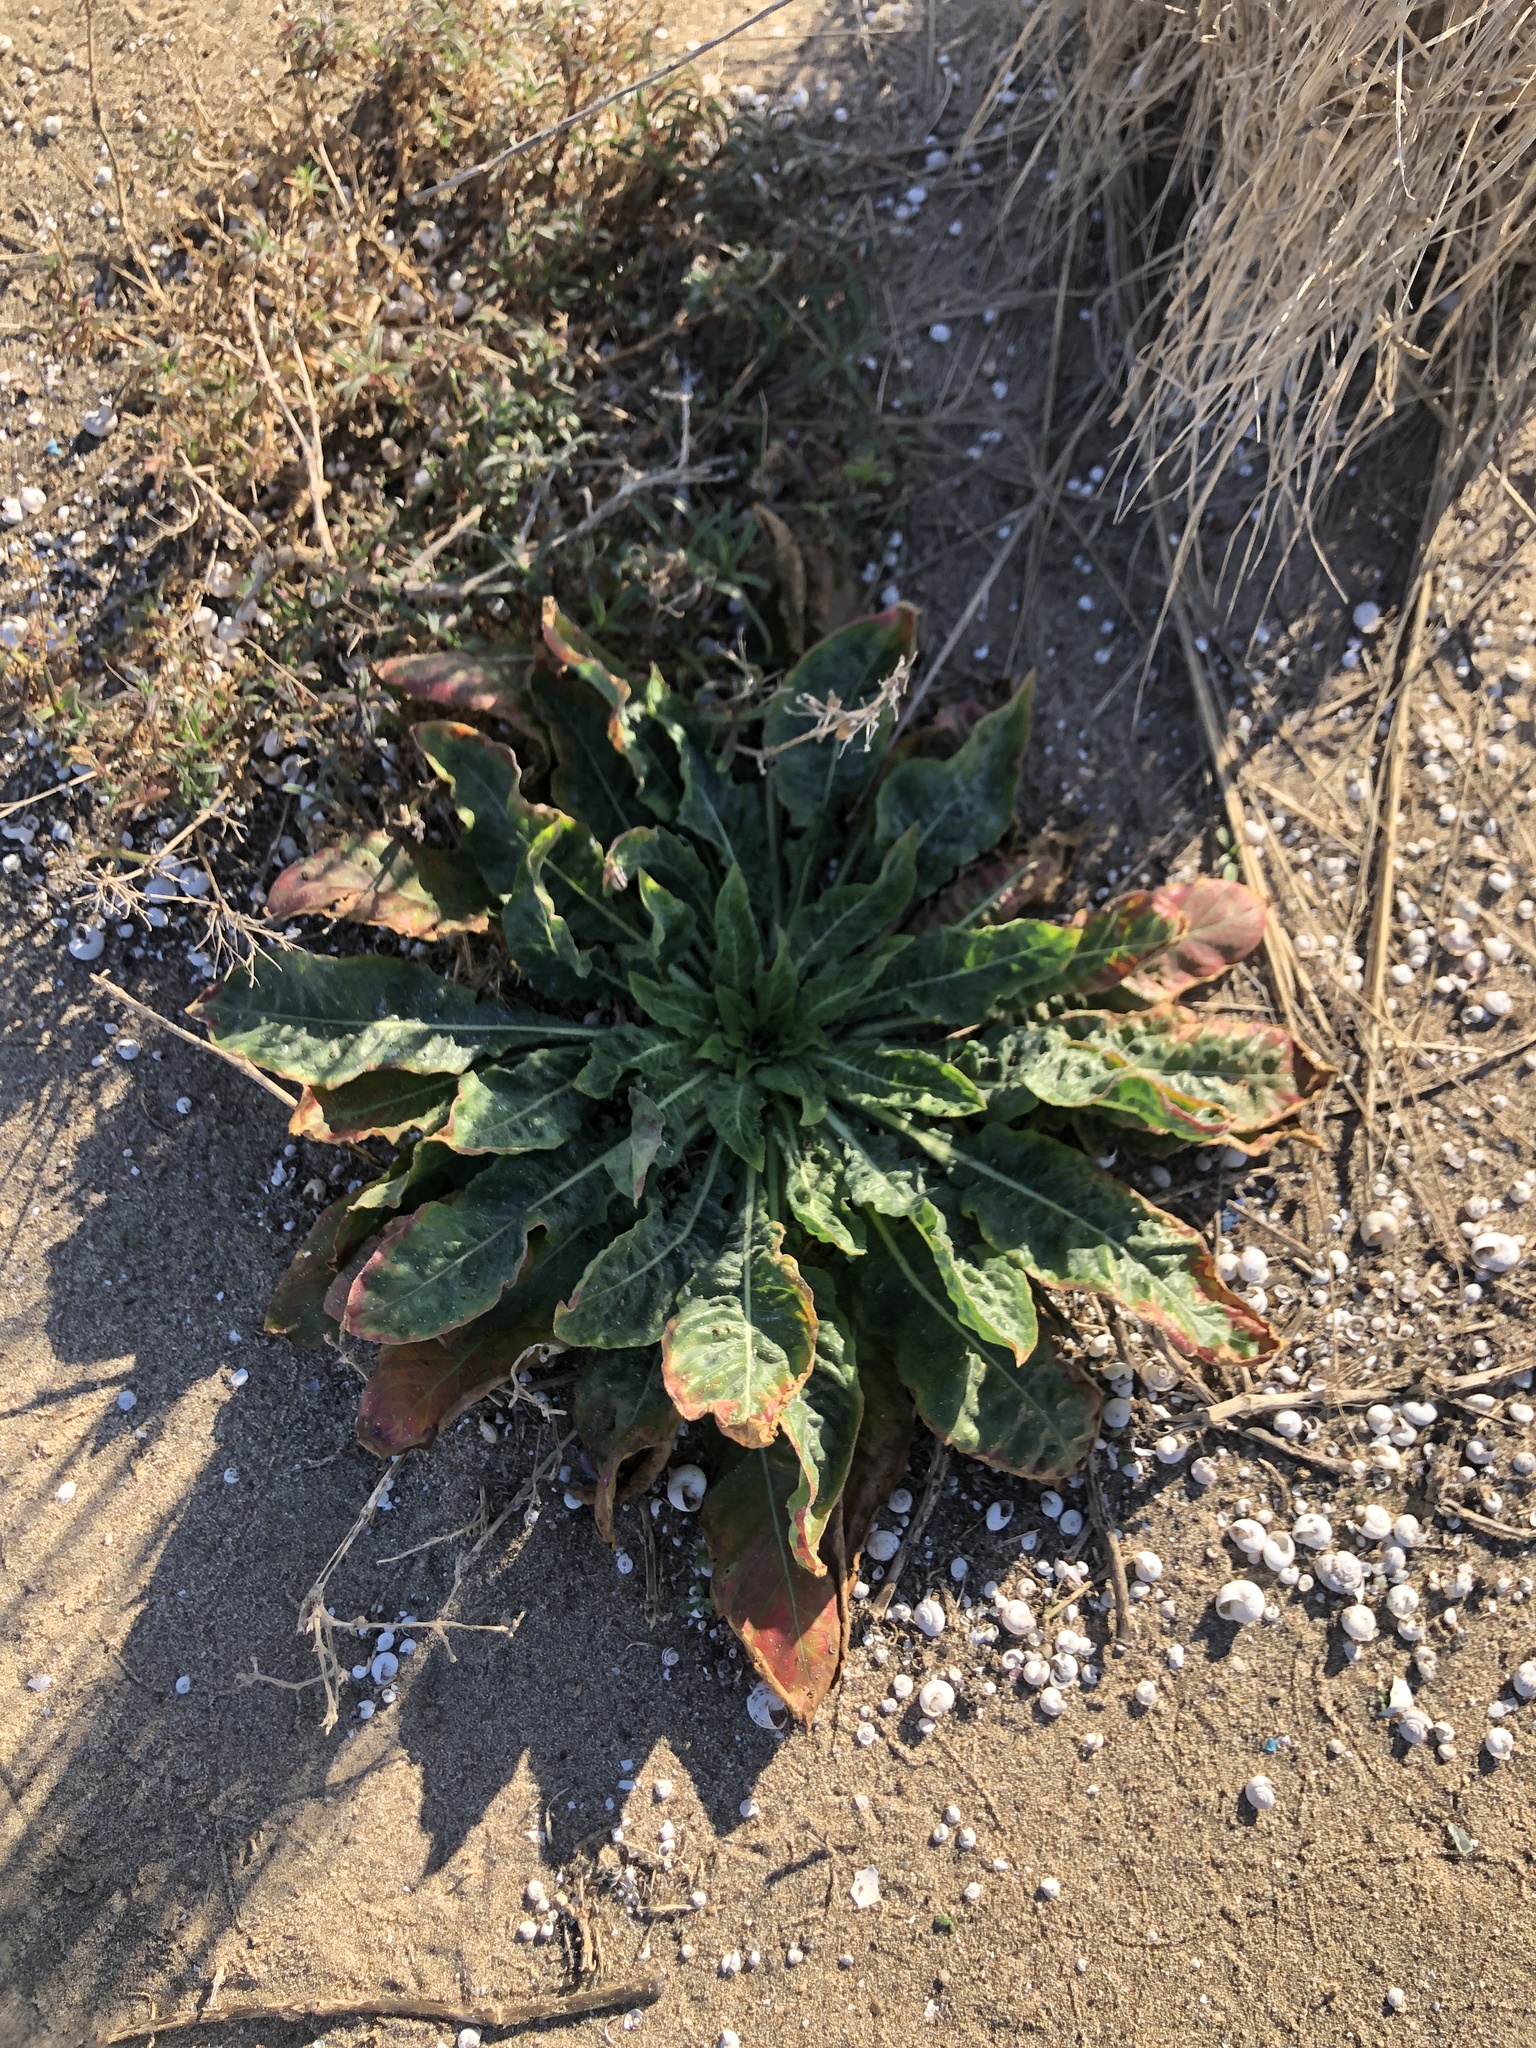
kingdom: Plantae
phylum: Tracheophyta
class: Magnoliopsida
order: Myrtales
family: Onagraceae
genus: Oenothera
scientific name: Oenothera glazioviana
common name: Large-flowered evening-primrose
